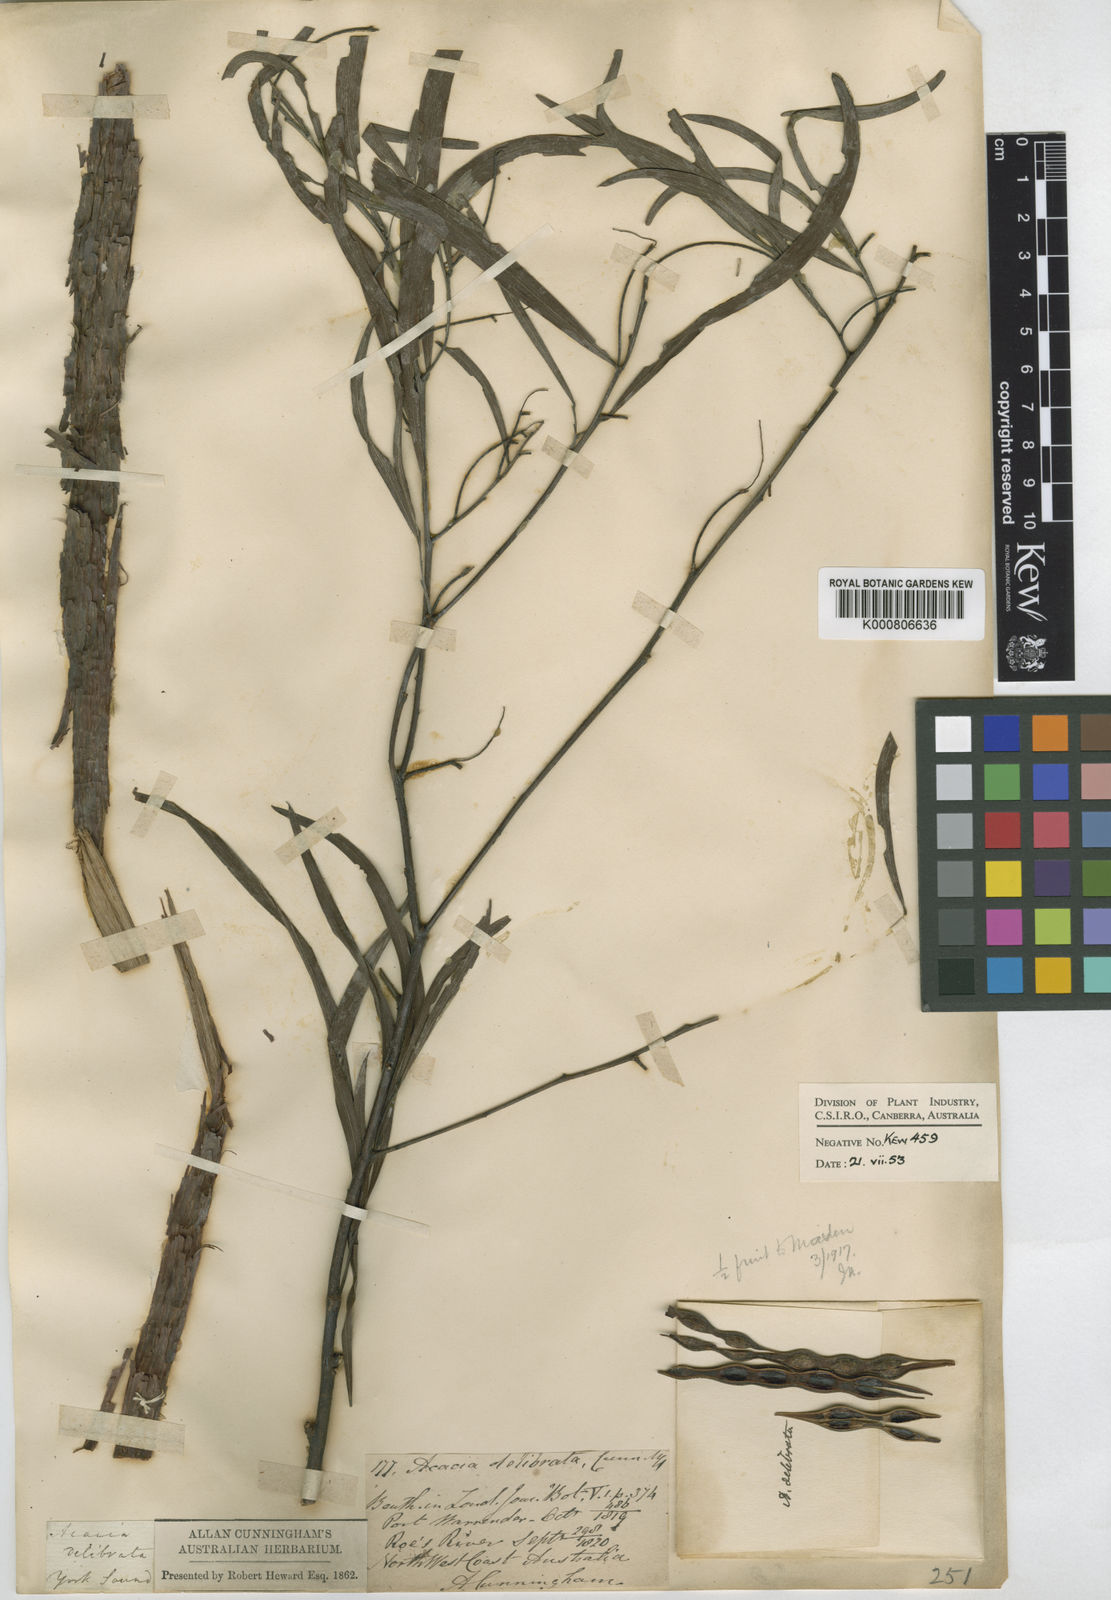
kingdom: Plantae
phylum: Tracheophyta
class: Magnoliopsida
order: Fabales
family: Fabaceae
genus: Acacia
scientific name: Acacia
